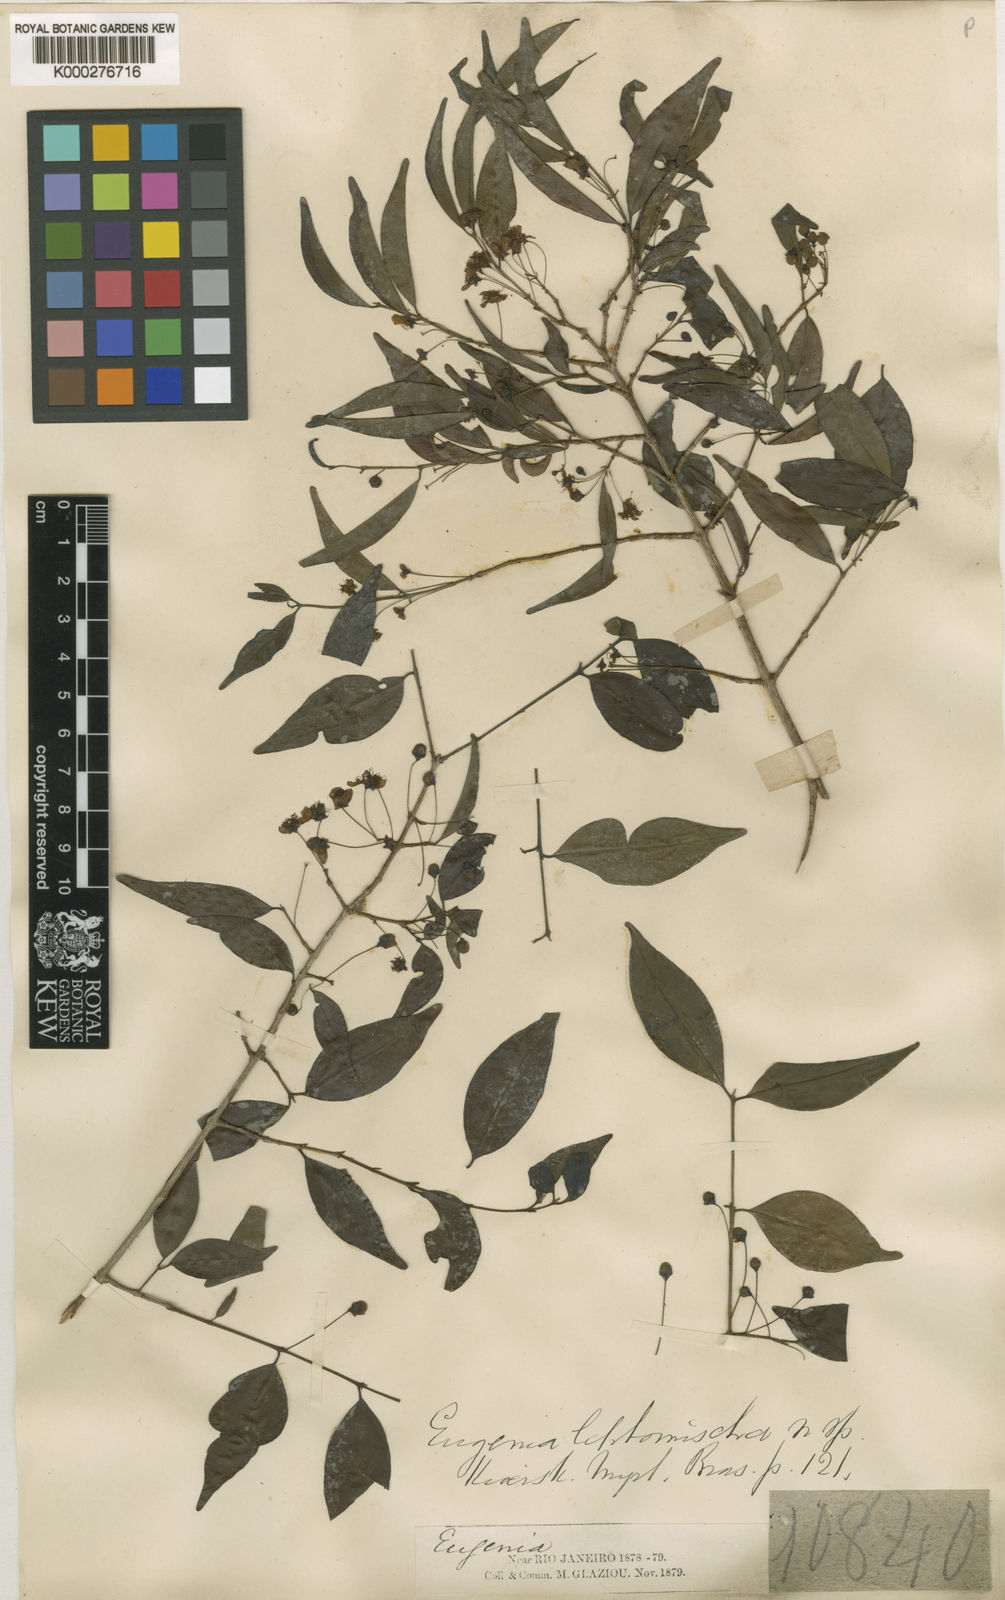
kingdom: Plantae
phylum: Tracheophyta
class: Magnoliopsida
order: Myrtales
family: Myrtaceae
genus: Eugenia
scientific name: Eugenia gracillima
